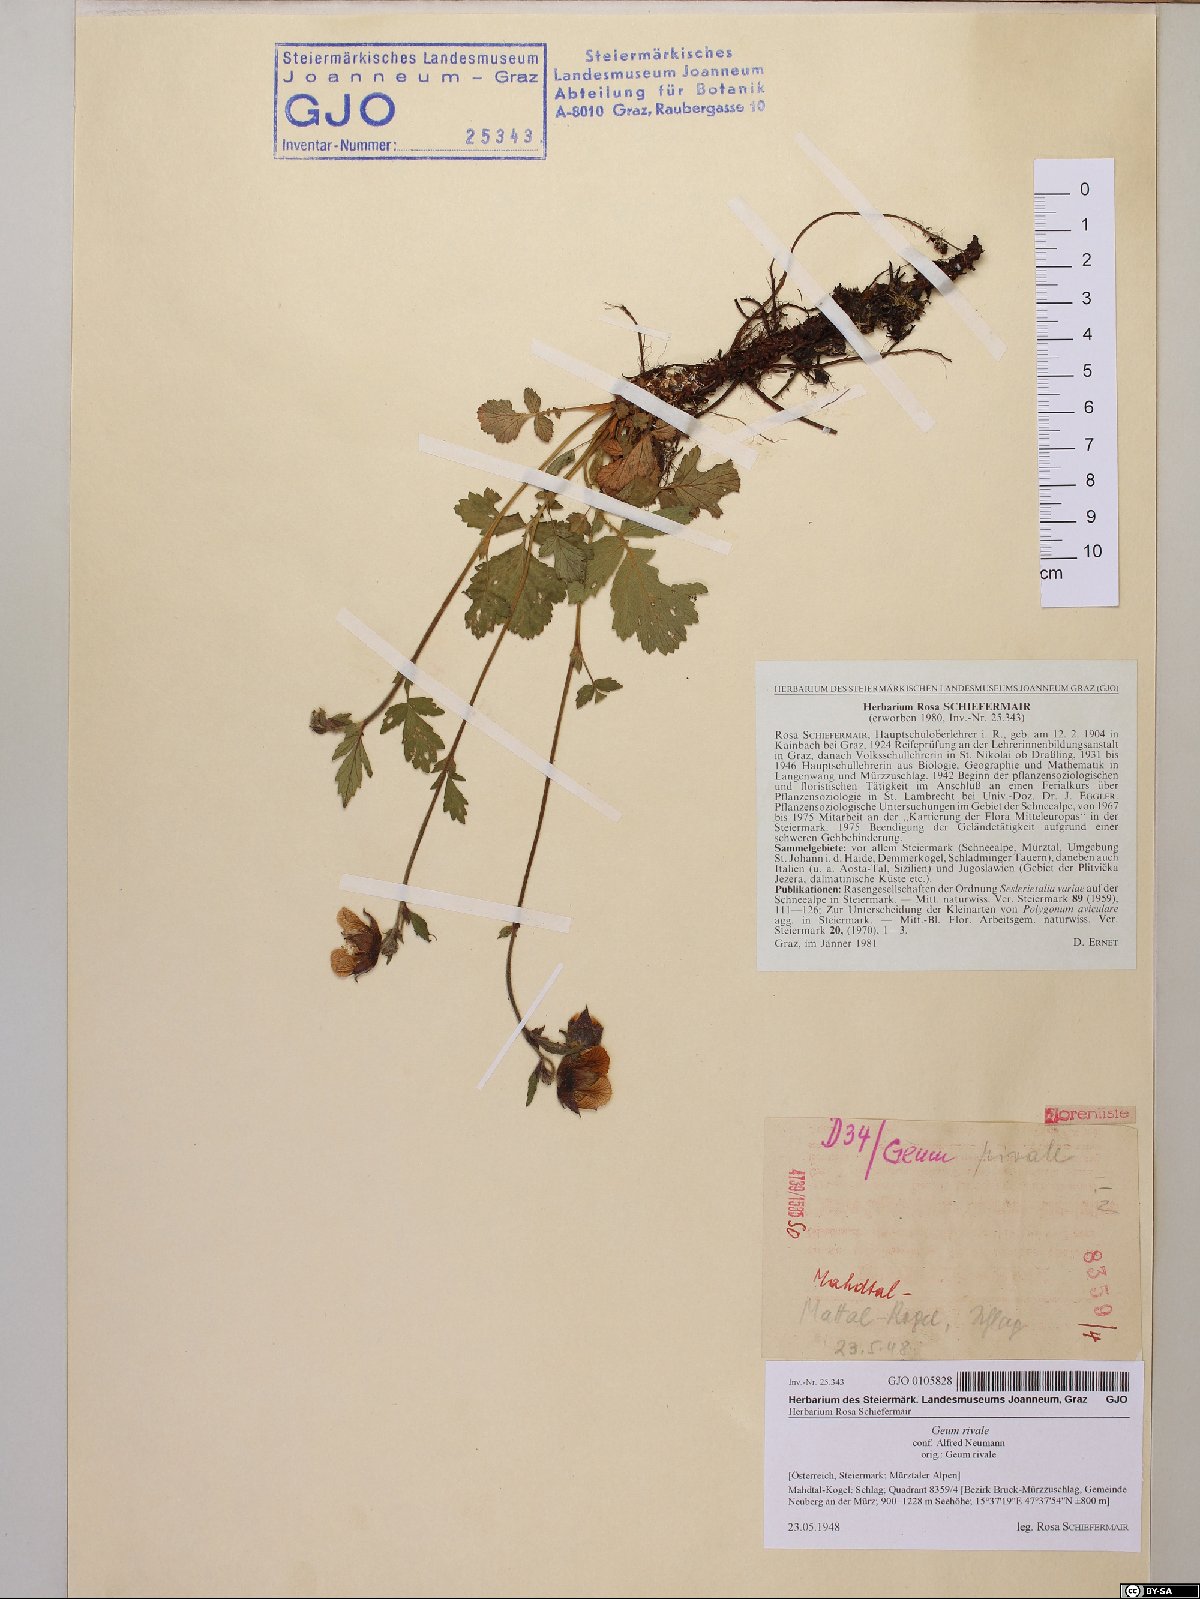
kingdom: Plantae
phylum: Tracheophyta
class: Magnoliopsida
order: Rosales
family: Rosaceae
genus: Geum
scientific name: Geum rivale
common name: Water avens
